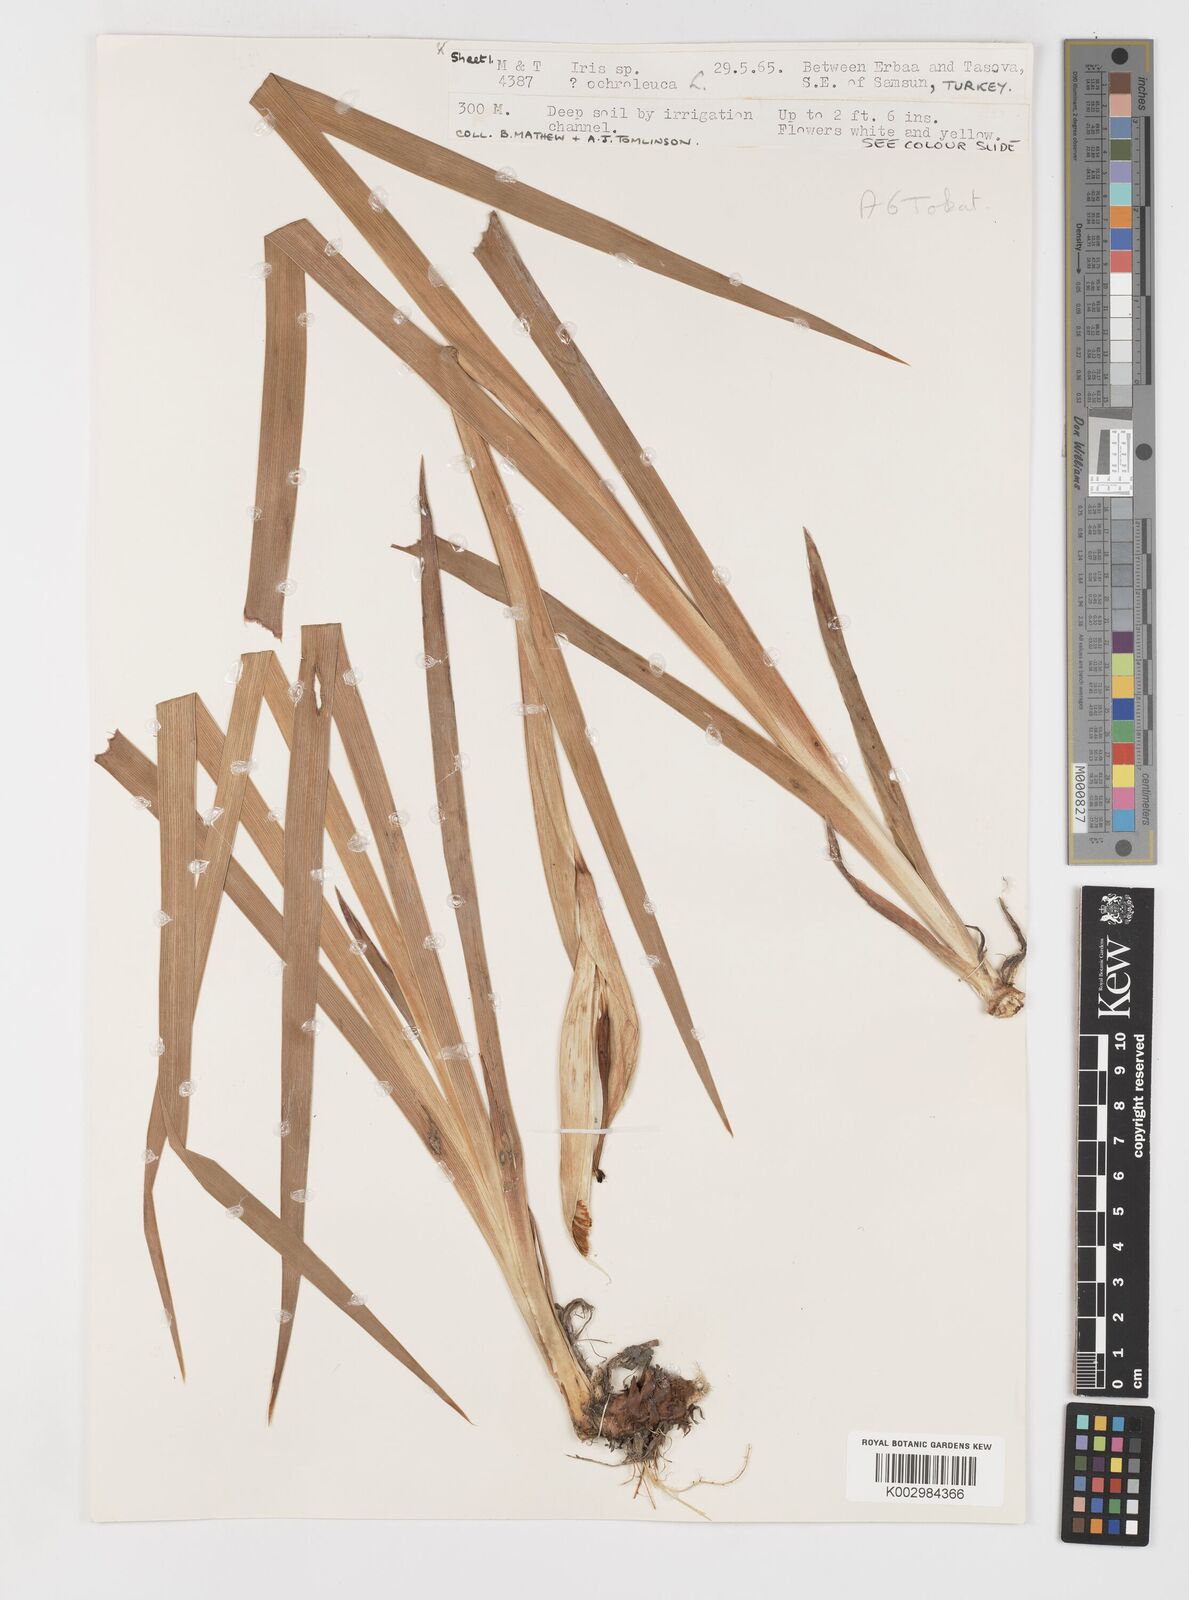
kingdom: Plantae
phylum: Tracheophyta
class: Liliopsida
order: Asparagales
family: Iridaceae
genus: Iris
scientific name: Iris orientalis
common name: Turkish iris
